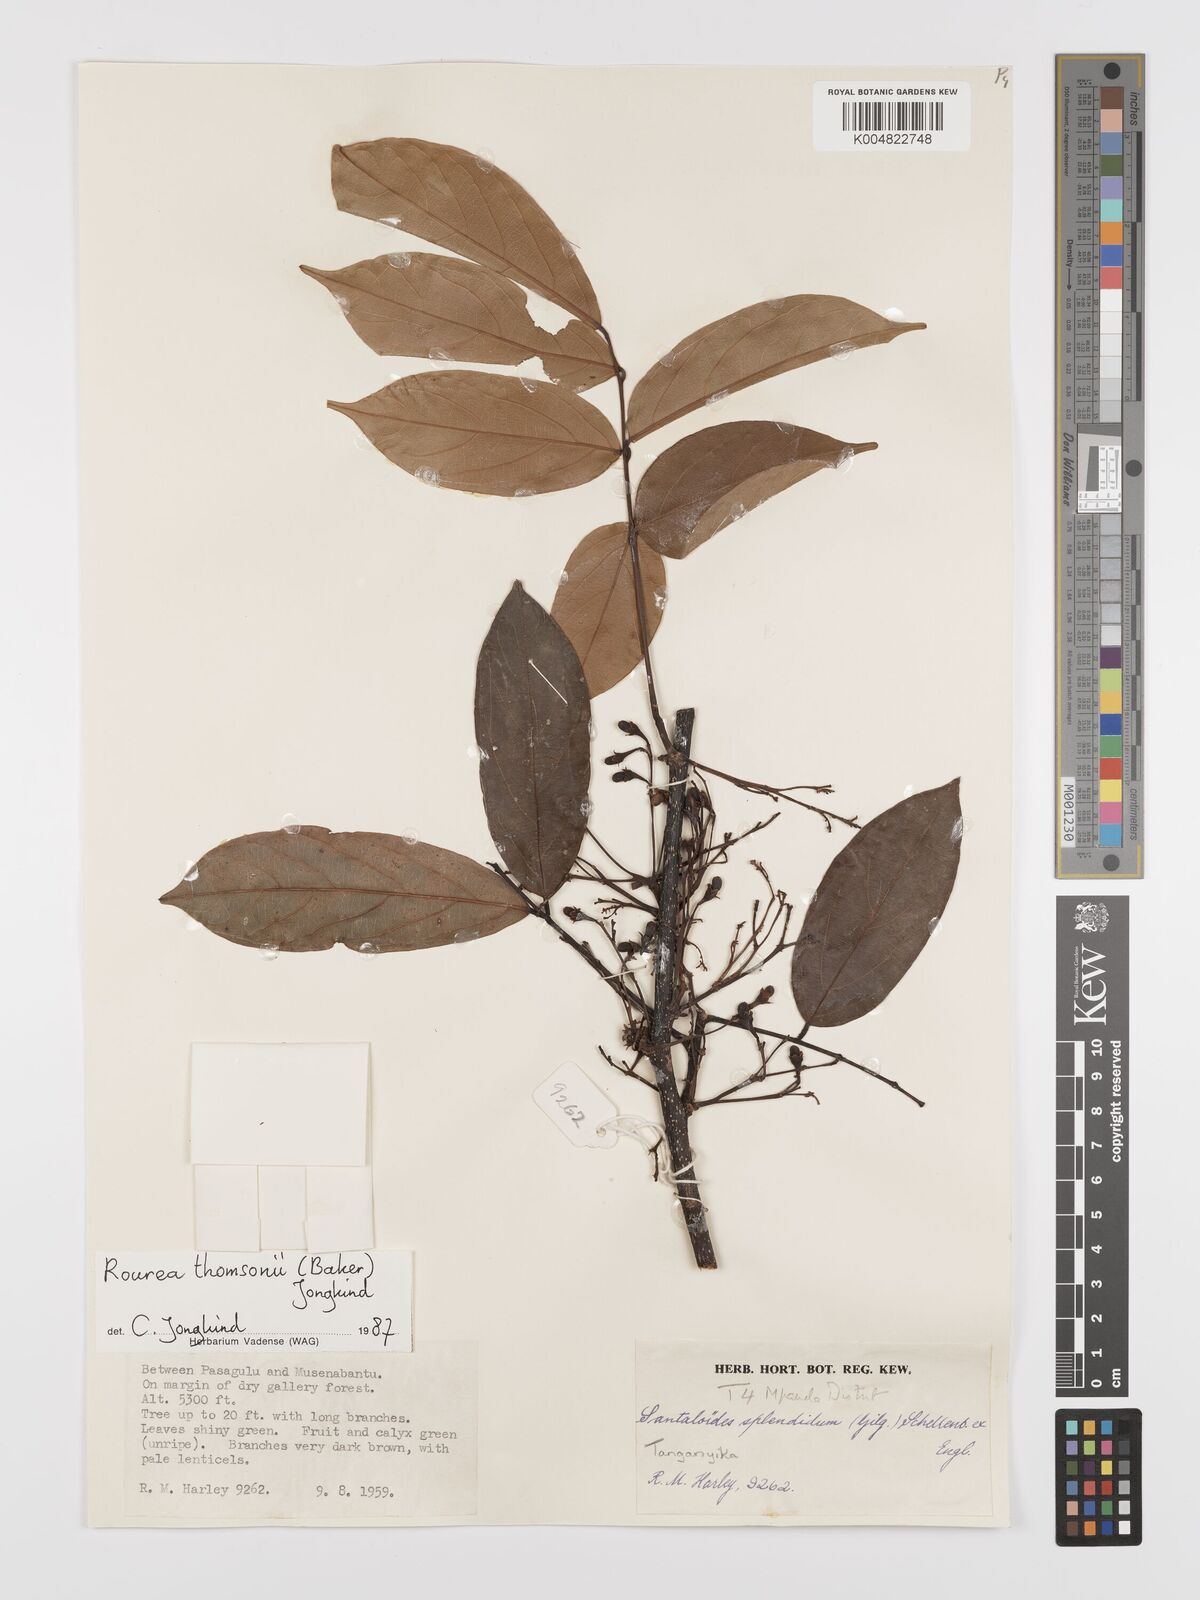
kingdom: Plantae
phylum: Tracheophyta
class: Magnoliopsida
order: Oxalidales
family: Connaraceae
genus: Rourea
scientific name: Rourea minor
